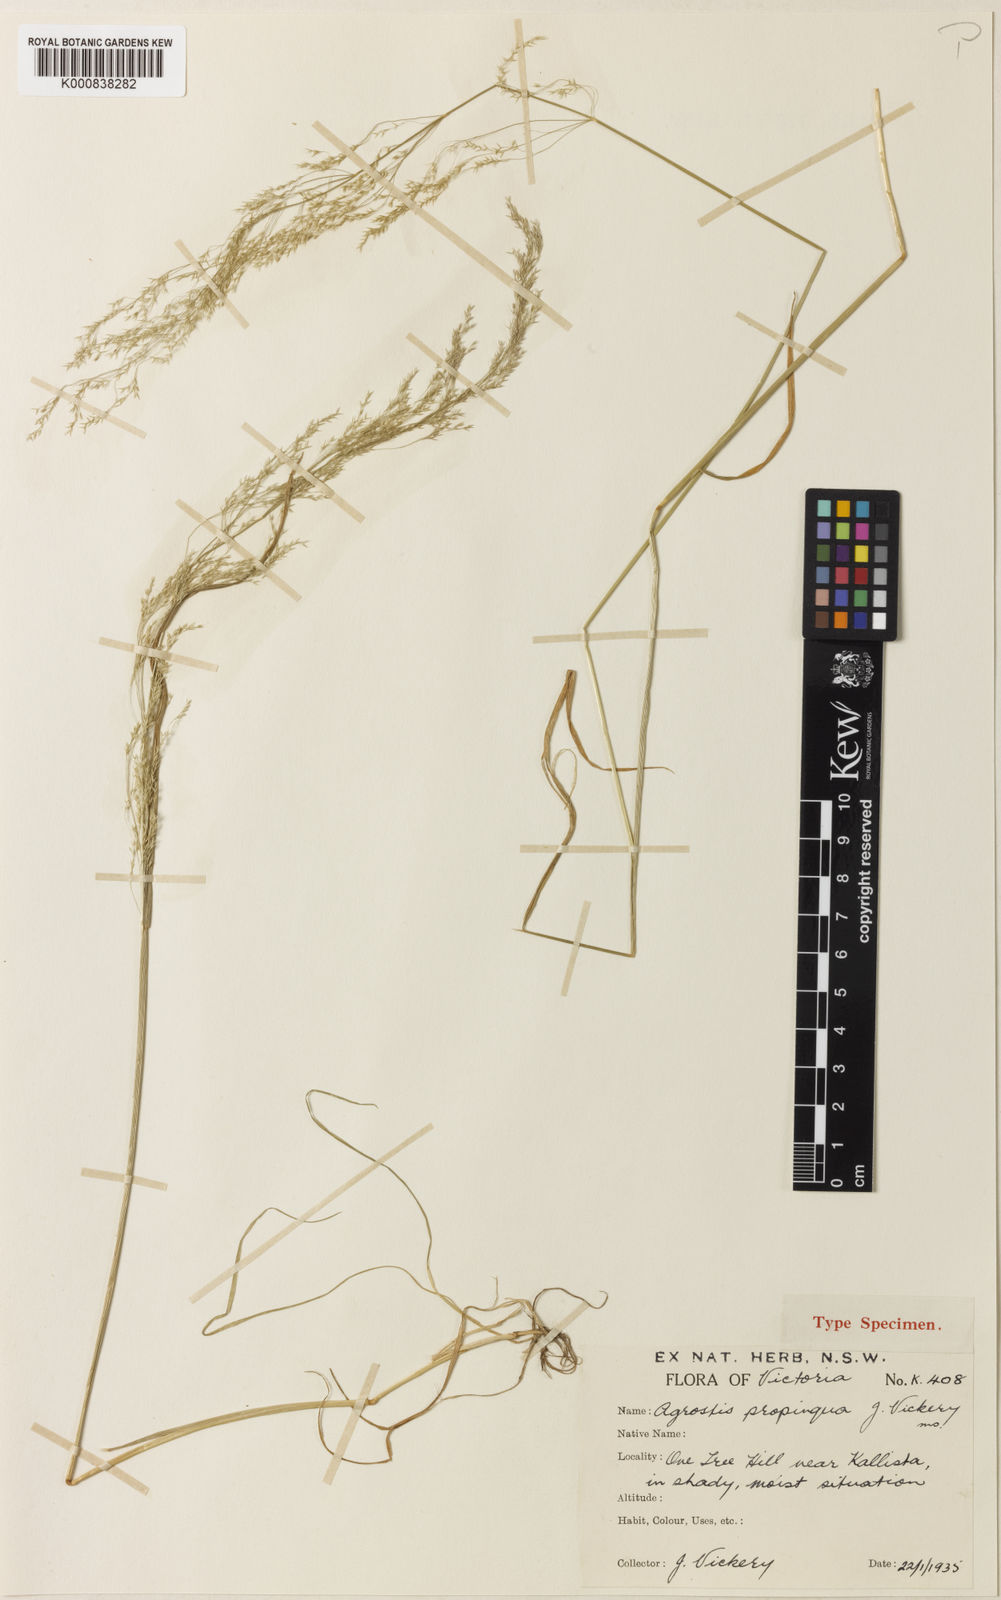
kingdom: Plantae
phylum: Tracheophyta
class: Liliopsida
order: Poales
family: Poaceae
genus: Agrostis
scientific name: Agrostis
